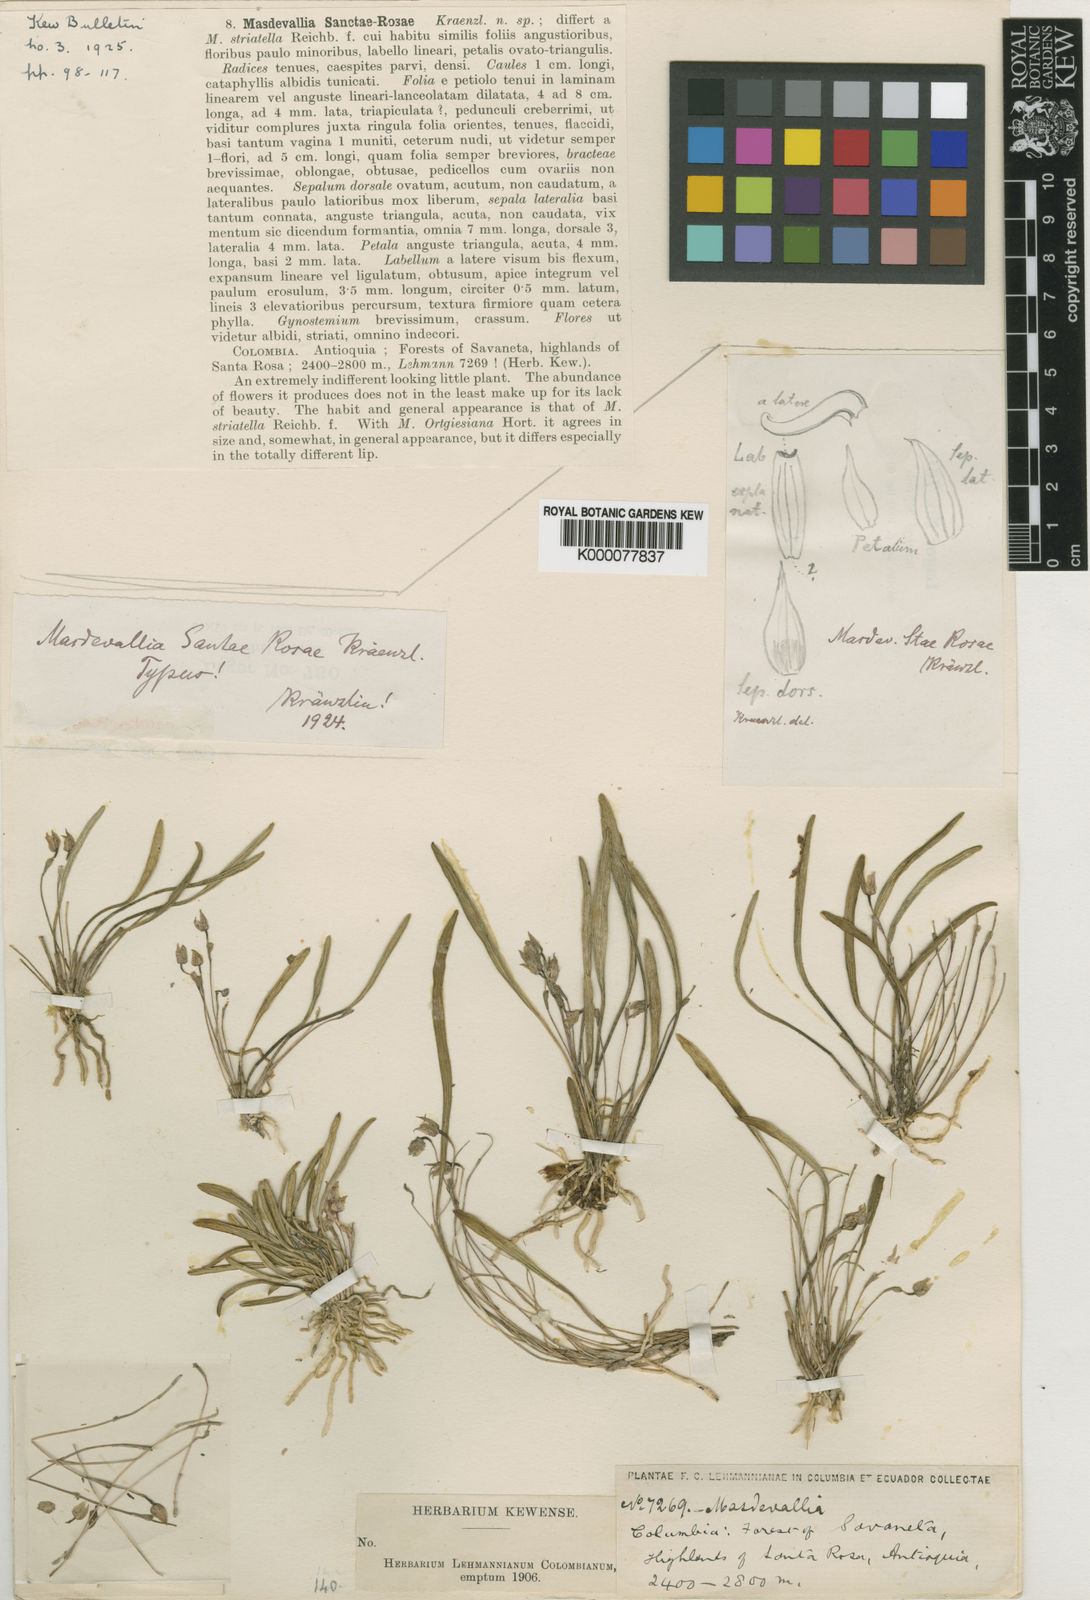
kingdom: Plantae
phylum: Tracheophyta
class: Liliopsida
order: Asparagales
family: Orchidaceae
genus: Masdevallia
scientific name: Masdevallia
